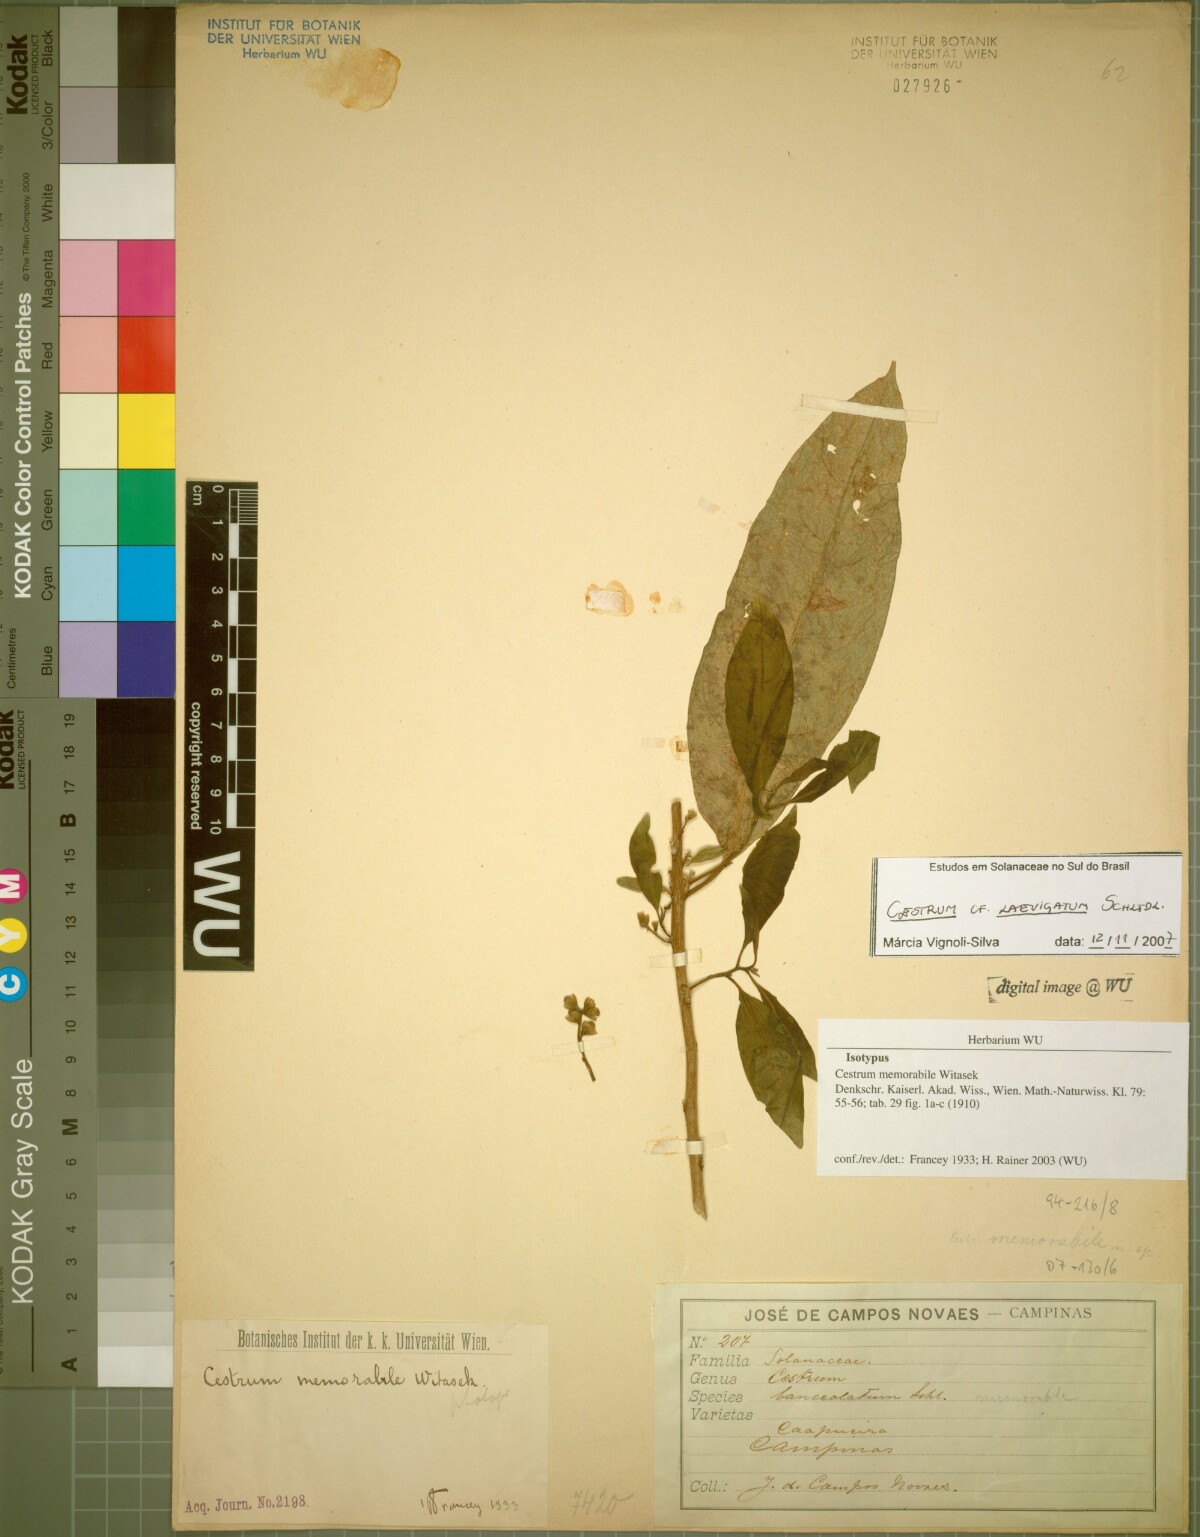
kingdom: Plantae
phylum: Tracheophyta
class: Magnoliopsida
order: Solanales
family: Solanaceae
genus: Cestrum
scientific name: Cestrum laevigatum
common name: Inkberry
